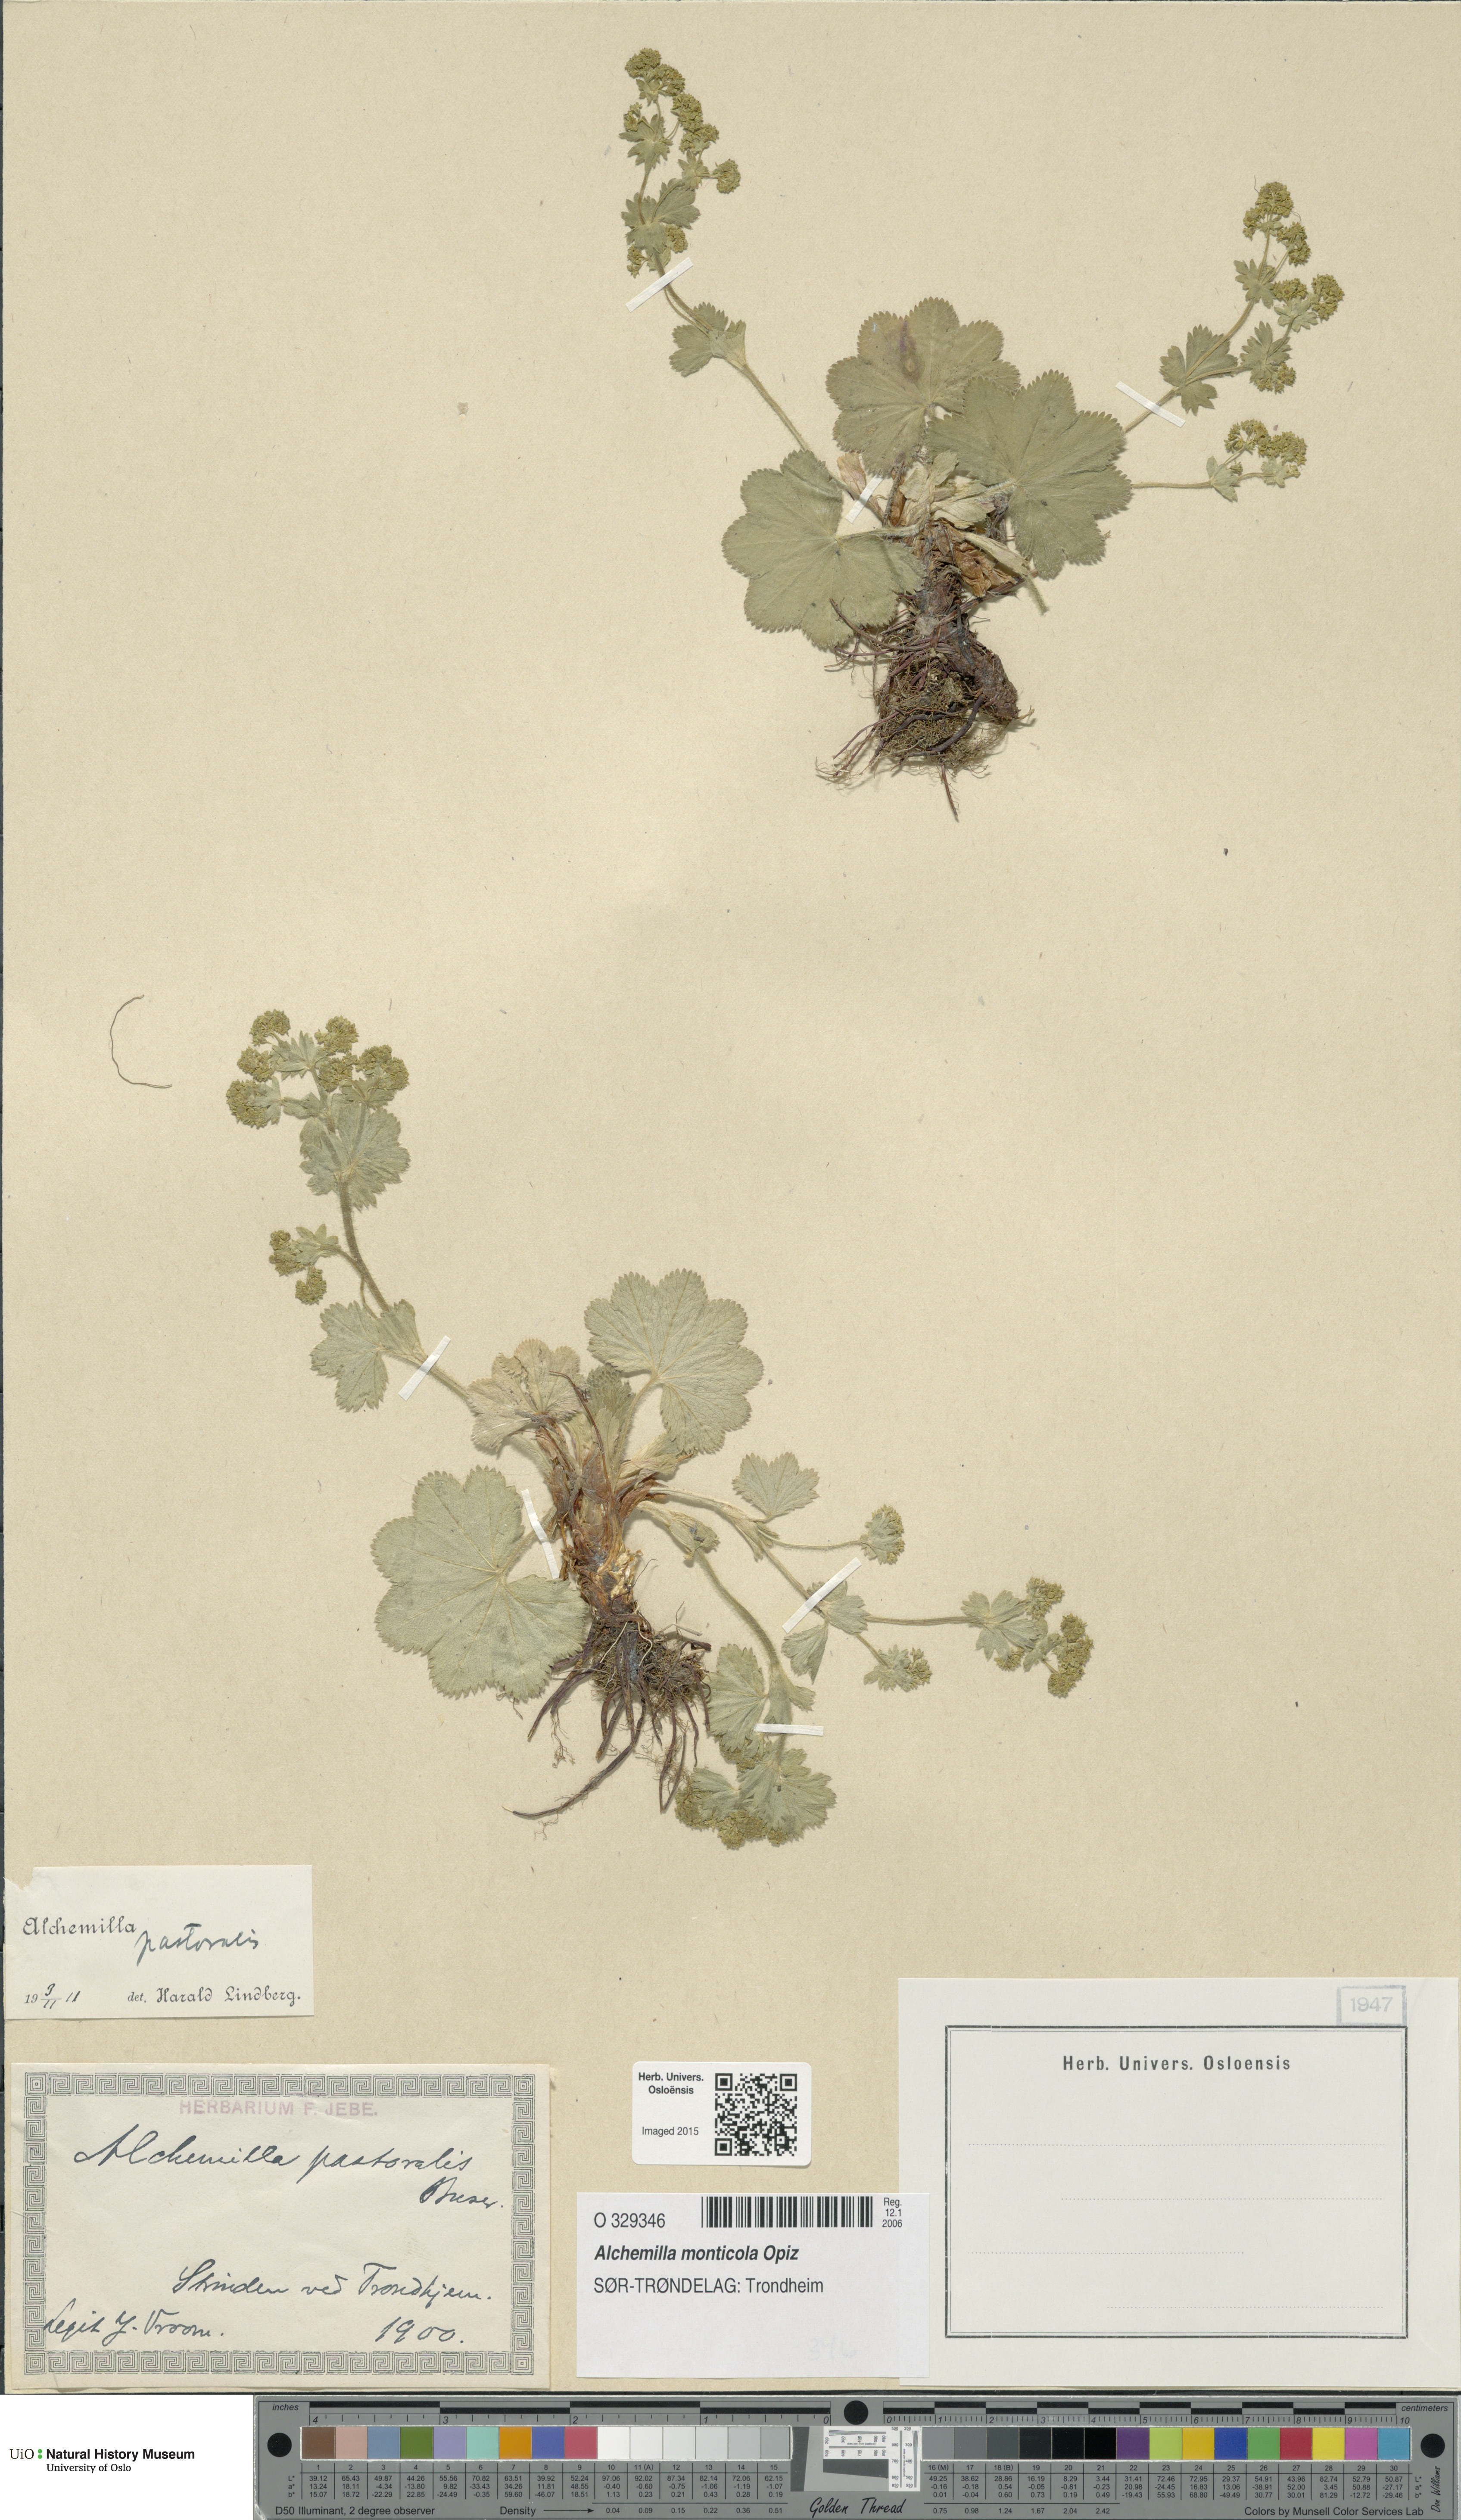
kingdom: Plantae
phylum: Tracheophyta
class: Magnoliopsida
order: Rosales
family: Rosaceae
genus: Alchemilla
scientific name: Alchemilla monticola
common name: Hairy lady's mantle
